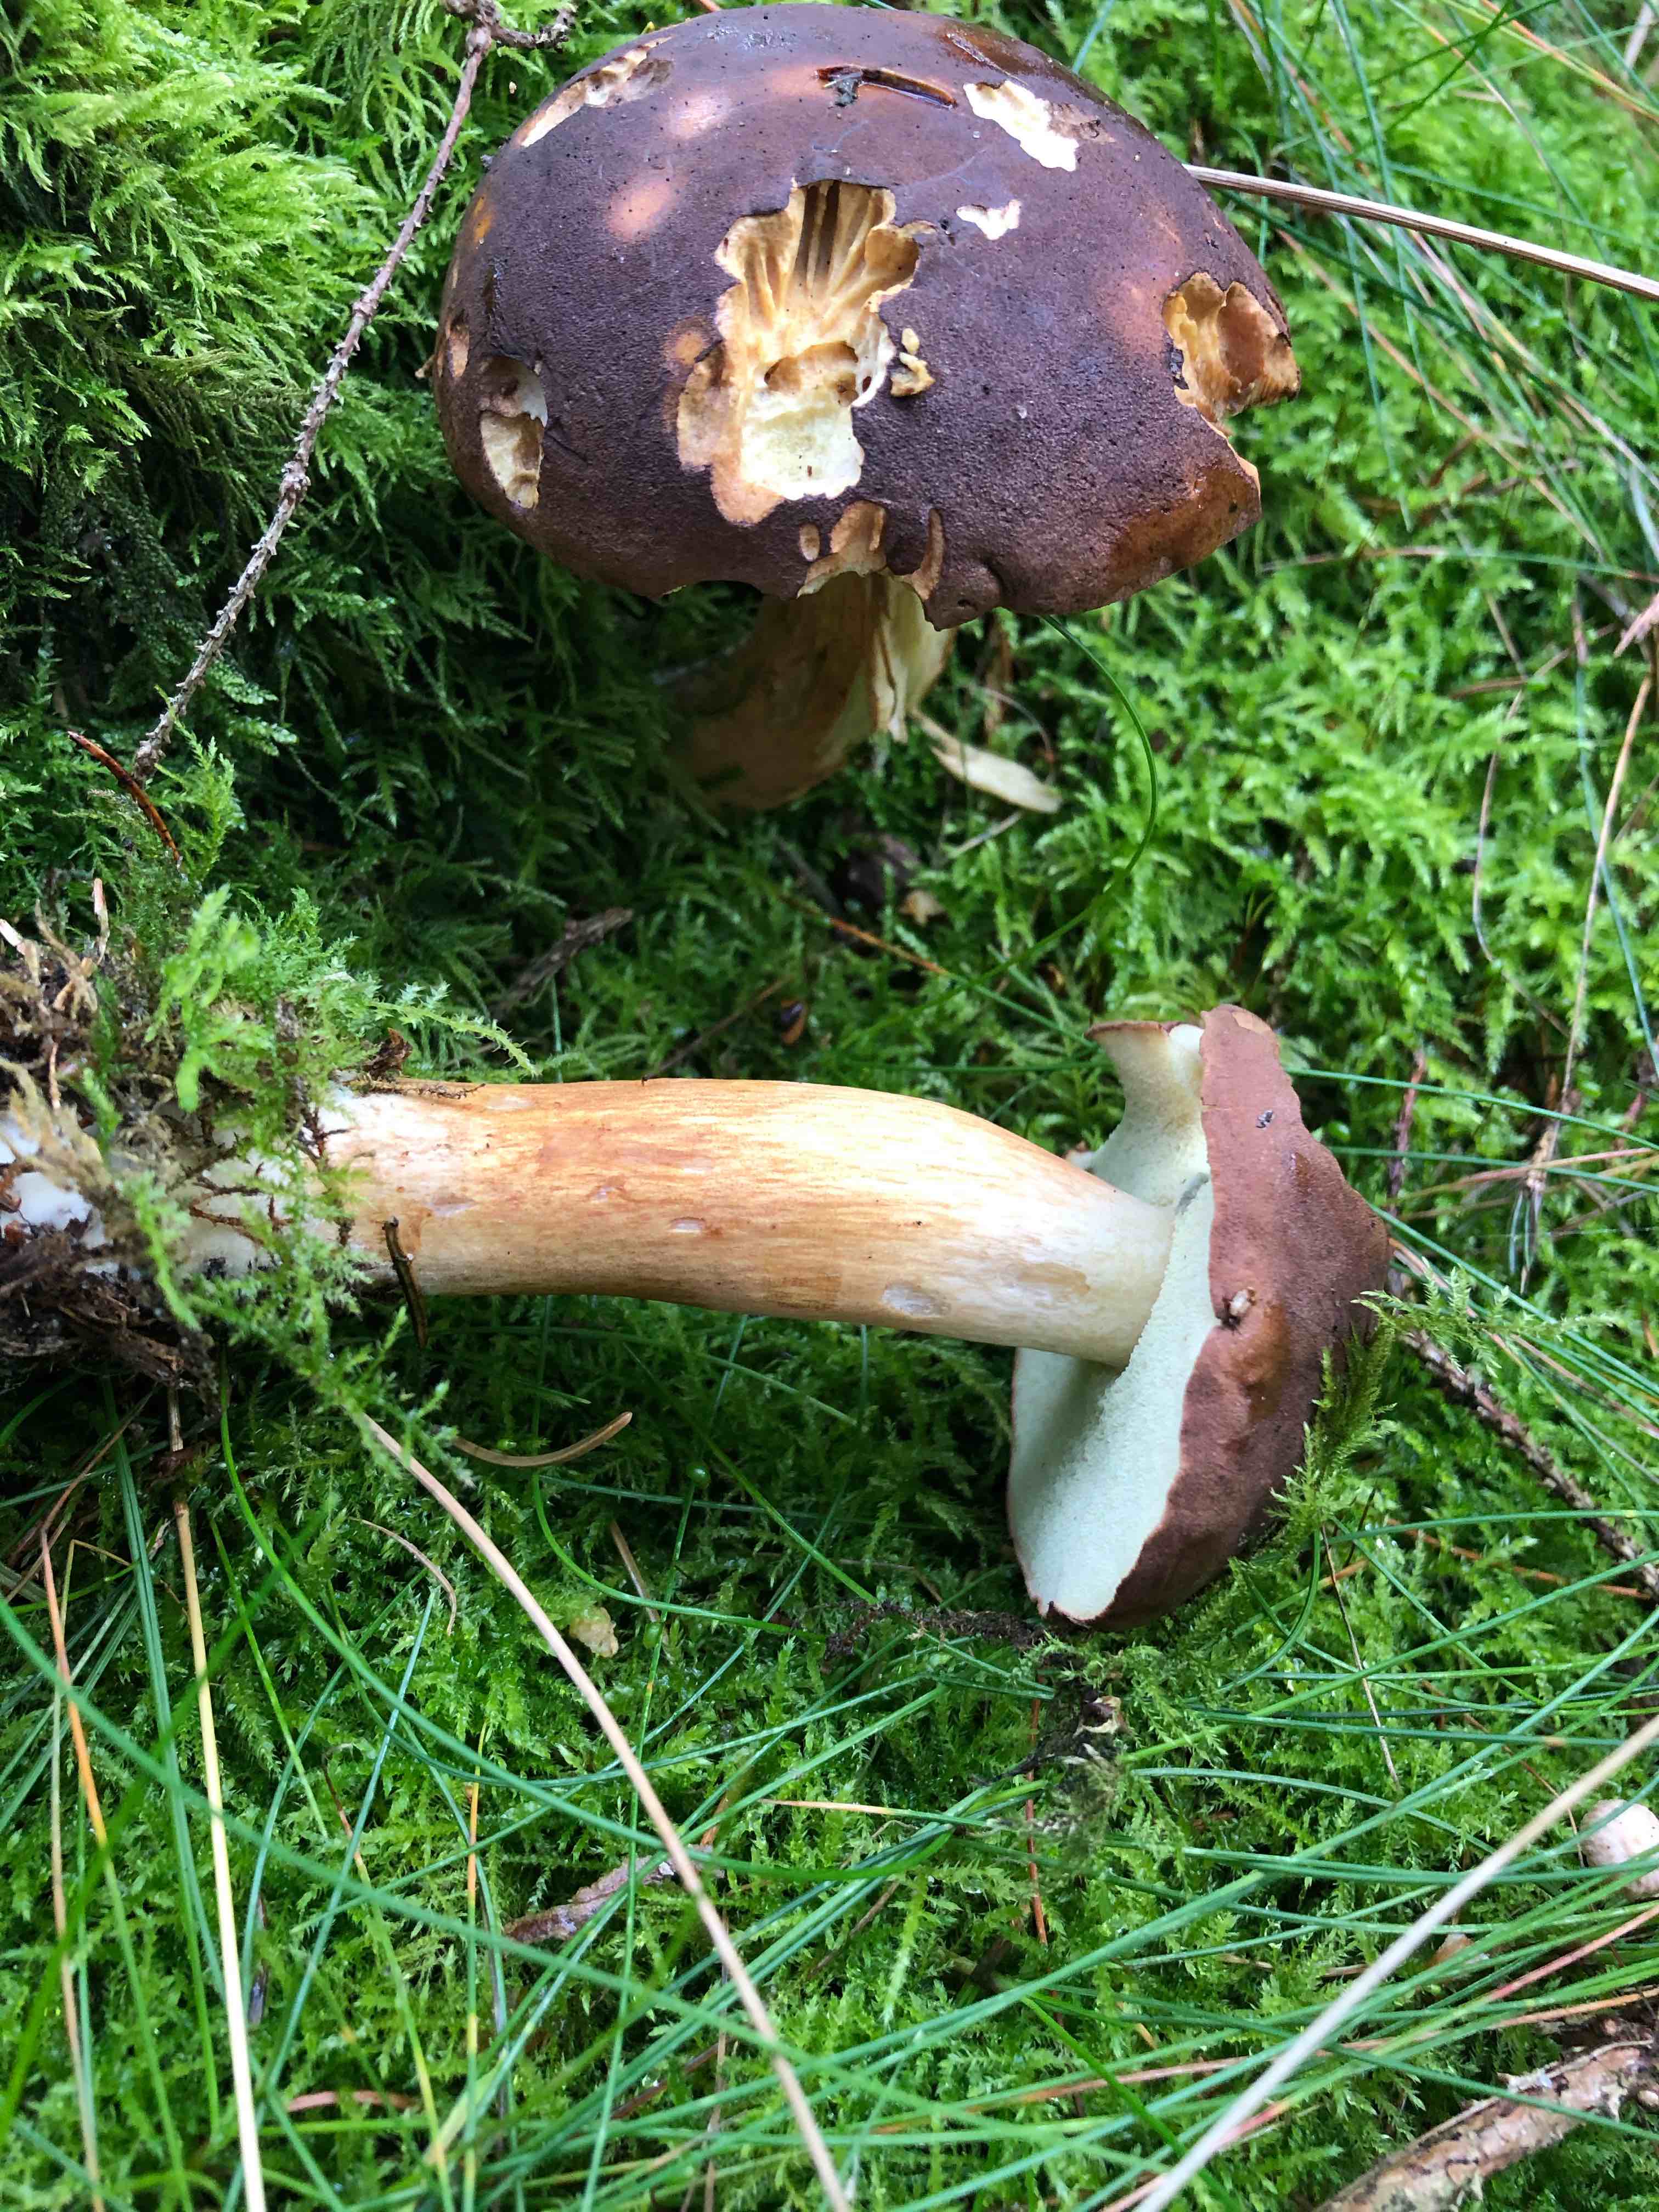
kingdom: Fungi
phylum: Basidiomycota
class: Agaricomycetes
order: Boletales
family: Boletaceae
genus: Imleria
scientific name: Imleria badia
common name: brunstokket rørhat
